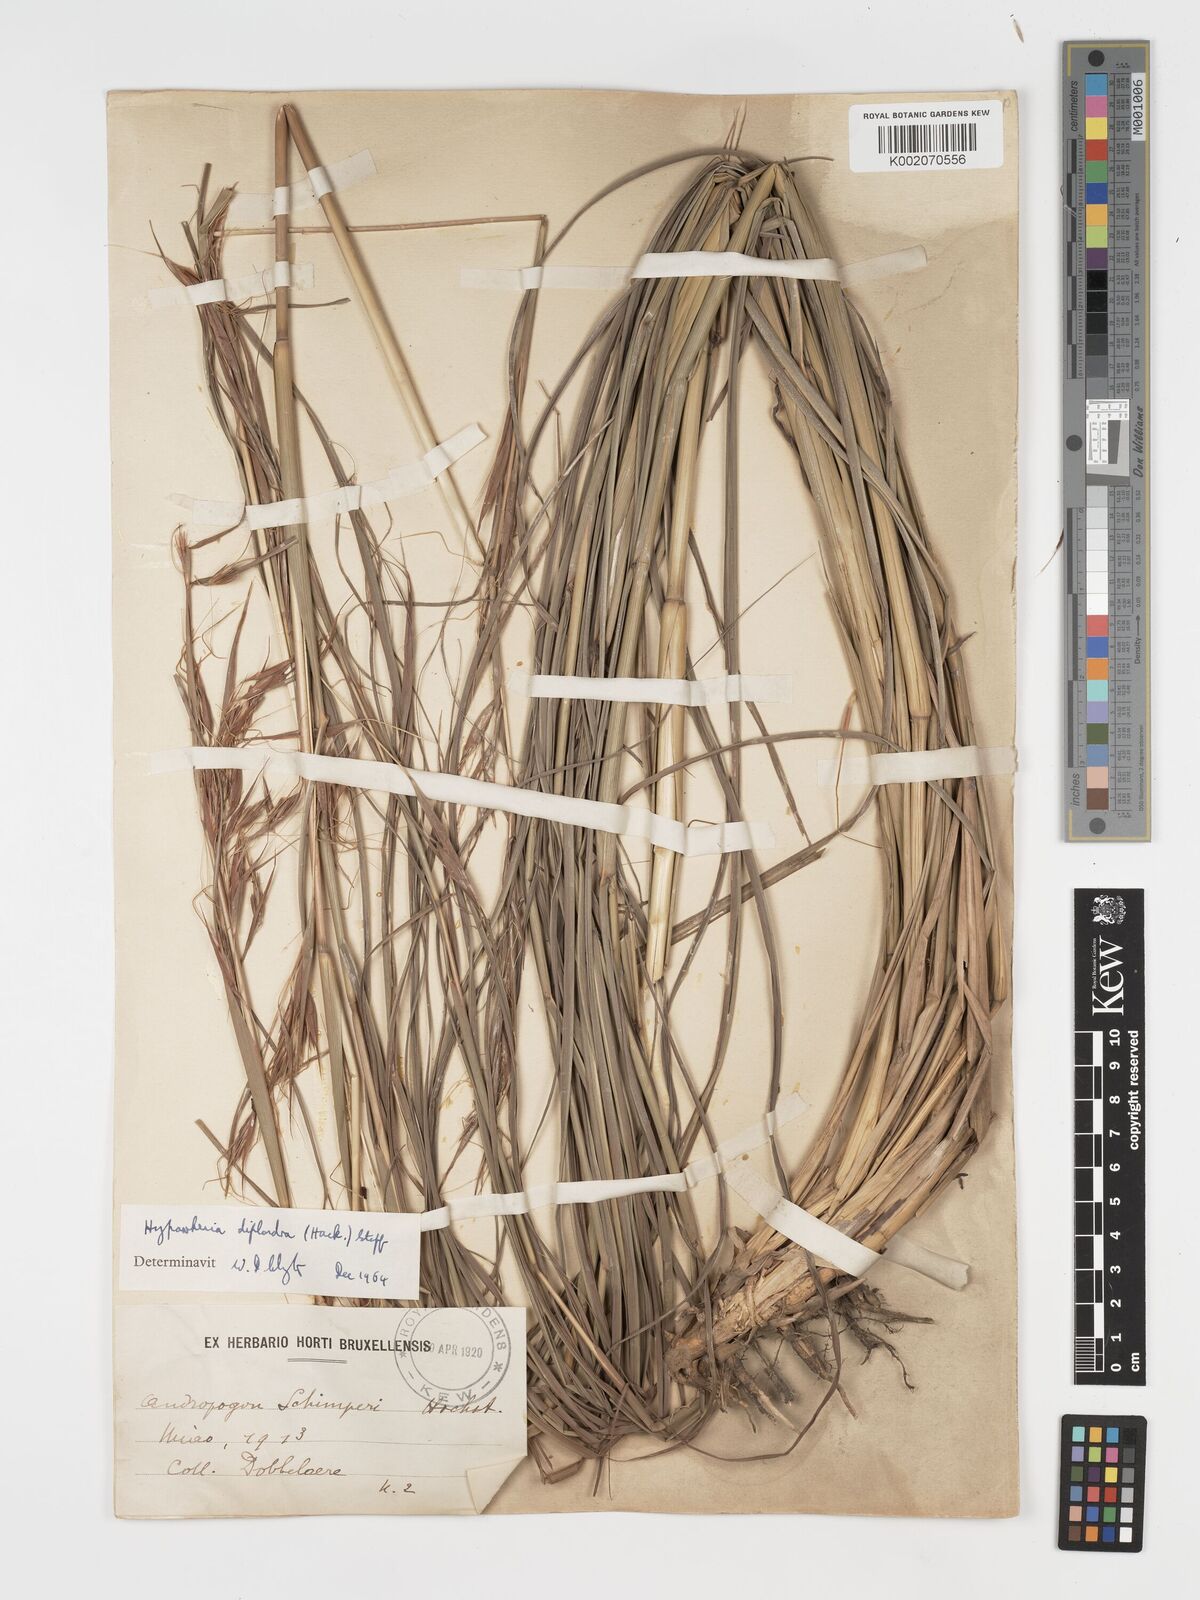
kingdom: Plantae
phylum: Tracheophyta
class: Liliopsida
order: Poales
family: Poaceae
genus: Hyparrhenia
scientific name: Hyparrhenia diplandra
